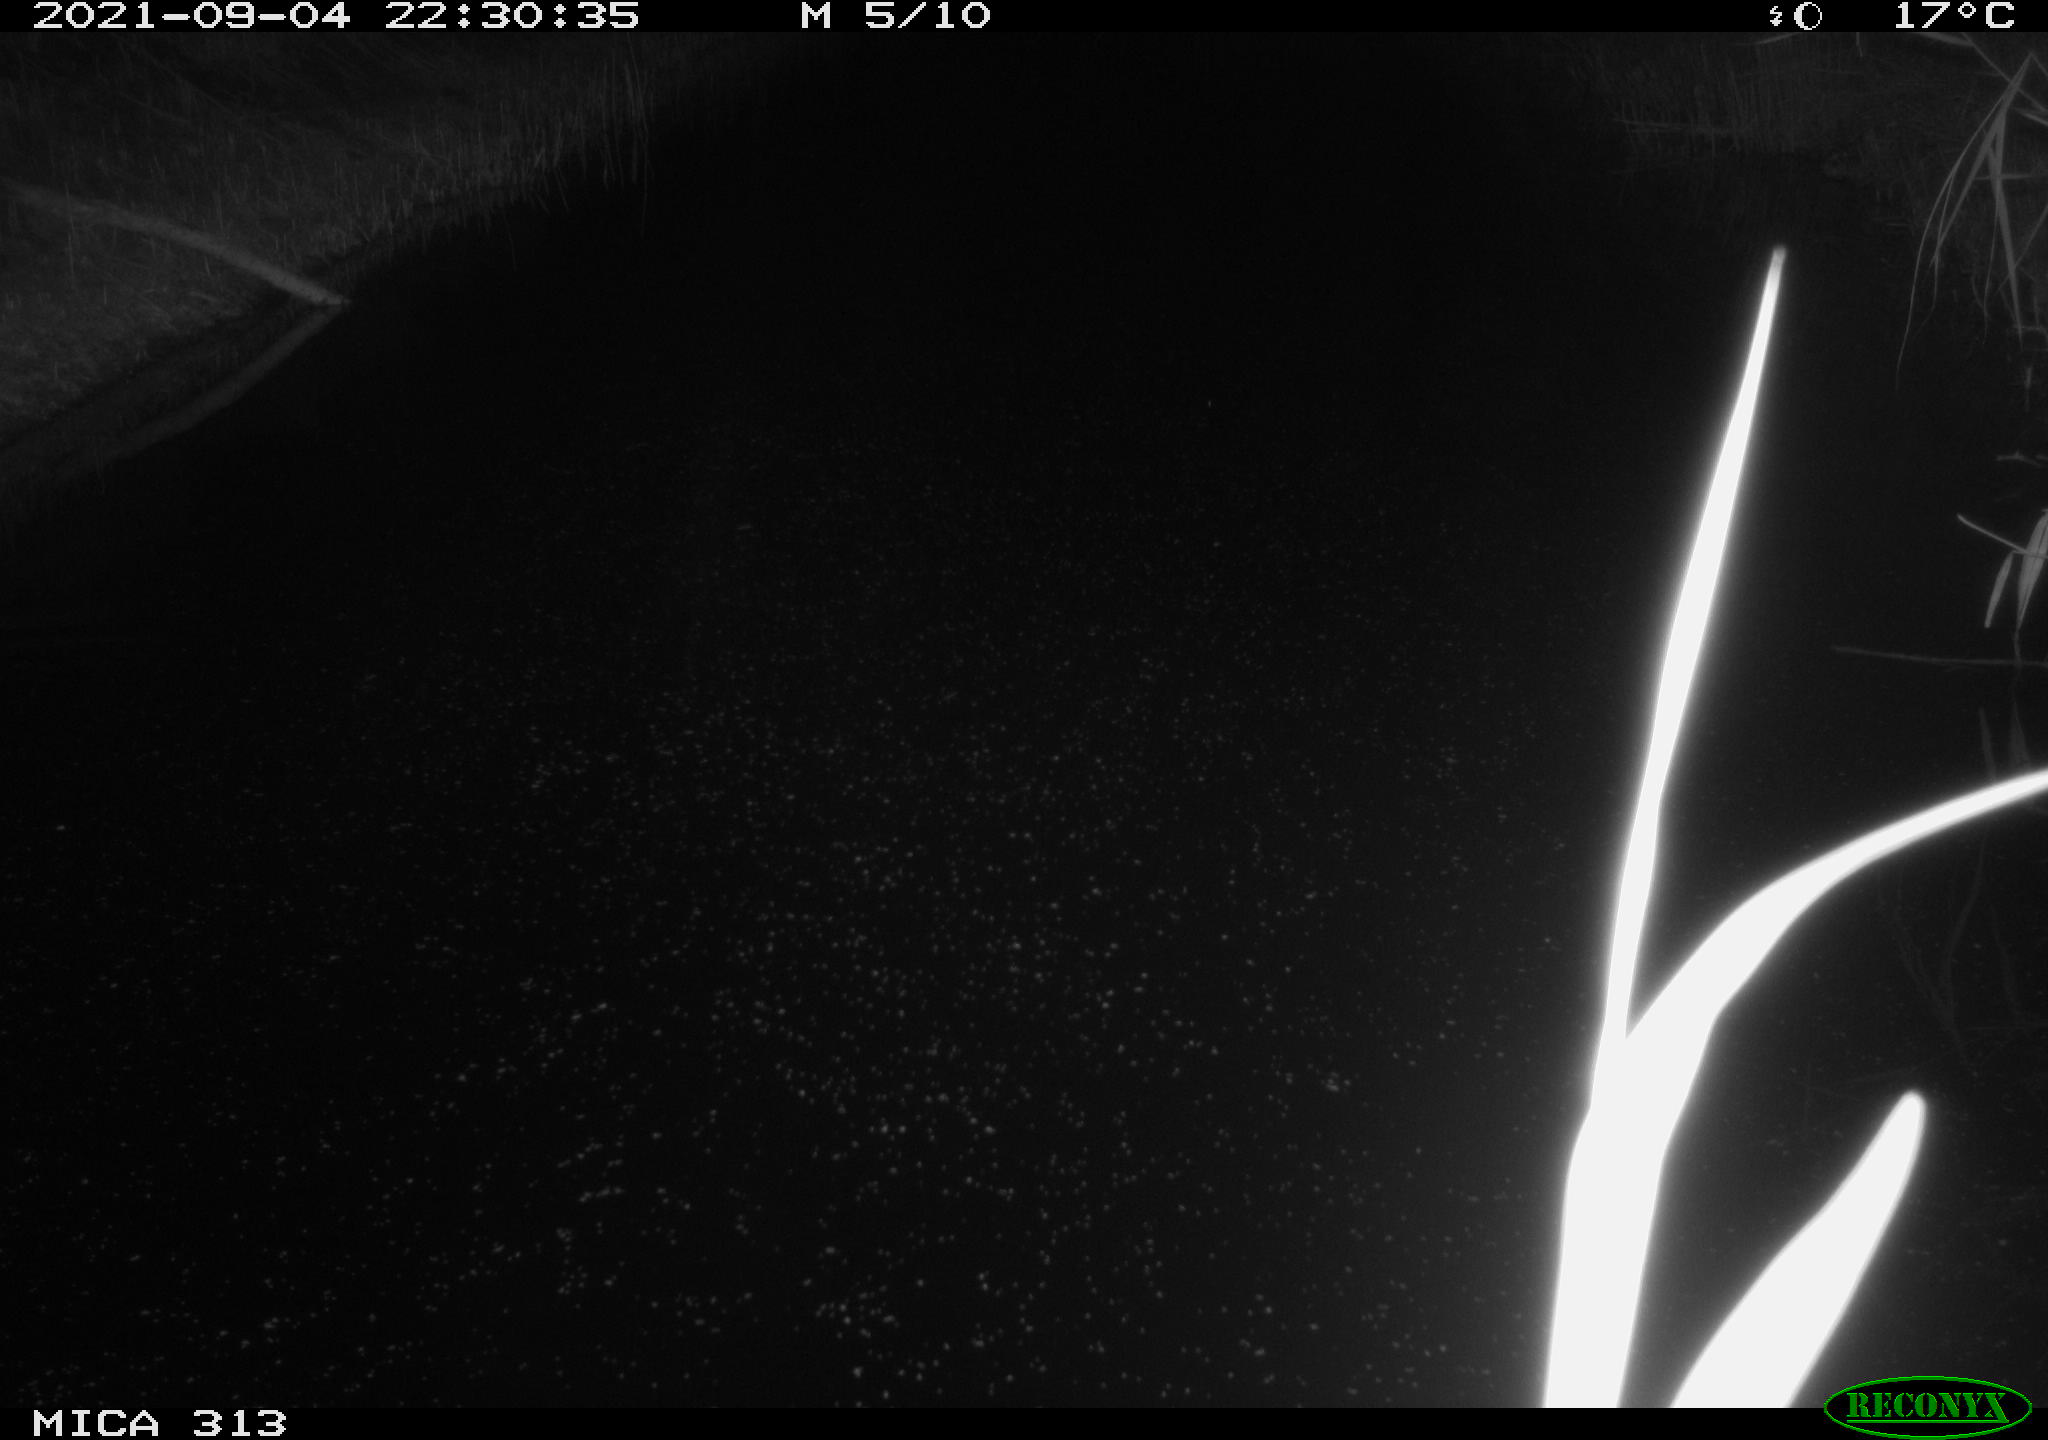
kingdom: Animalia
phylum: Chordata
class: Mammalia
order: Rodentia
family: Muridae
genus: Rattus
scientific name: Rattus norvegicus
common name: Brown rat
